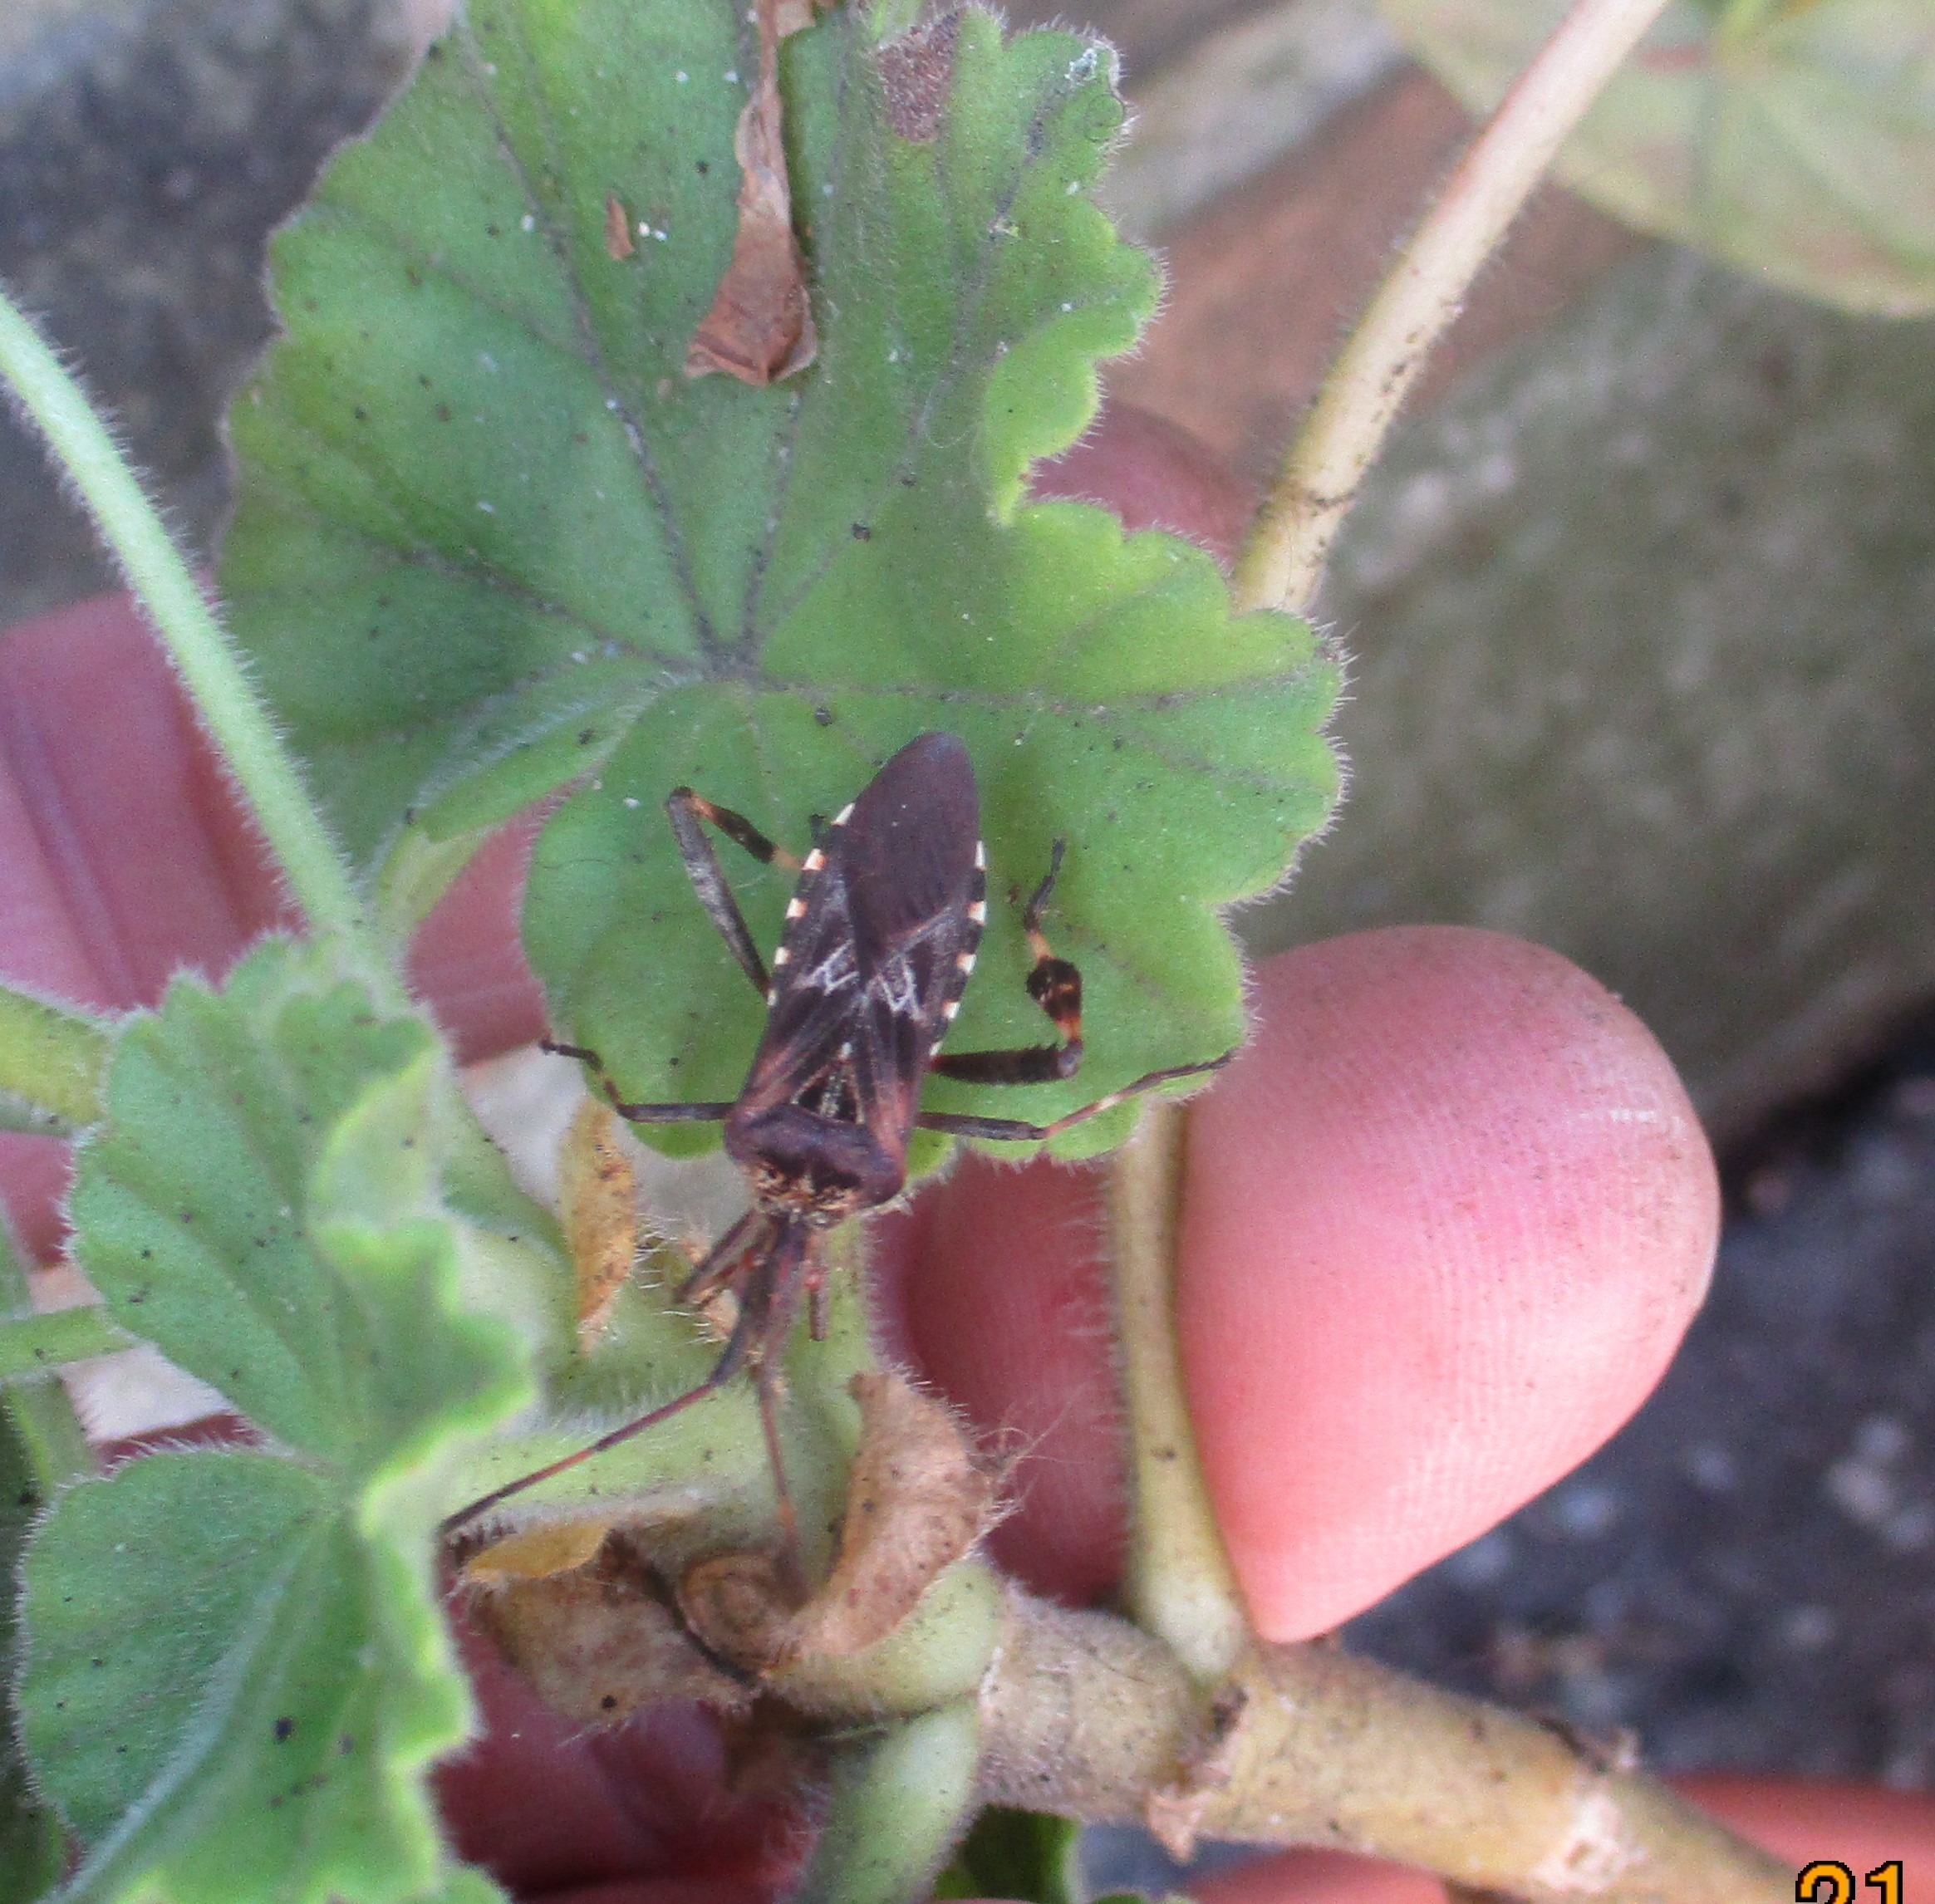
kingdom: Animalia
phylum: Arthropoda
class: Insecta
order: Hemiptera
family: Coreidae
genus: Leptoglossus
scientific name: Leptoglossus occidentalis
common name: Amerikansk fyrretæge
